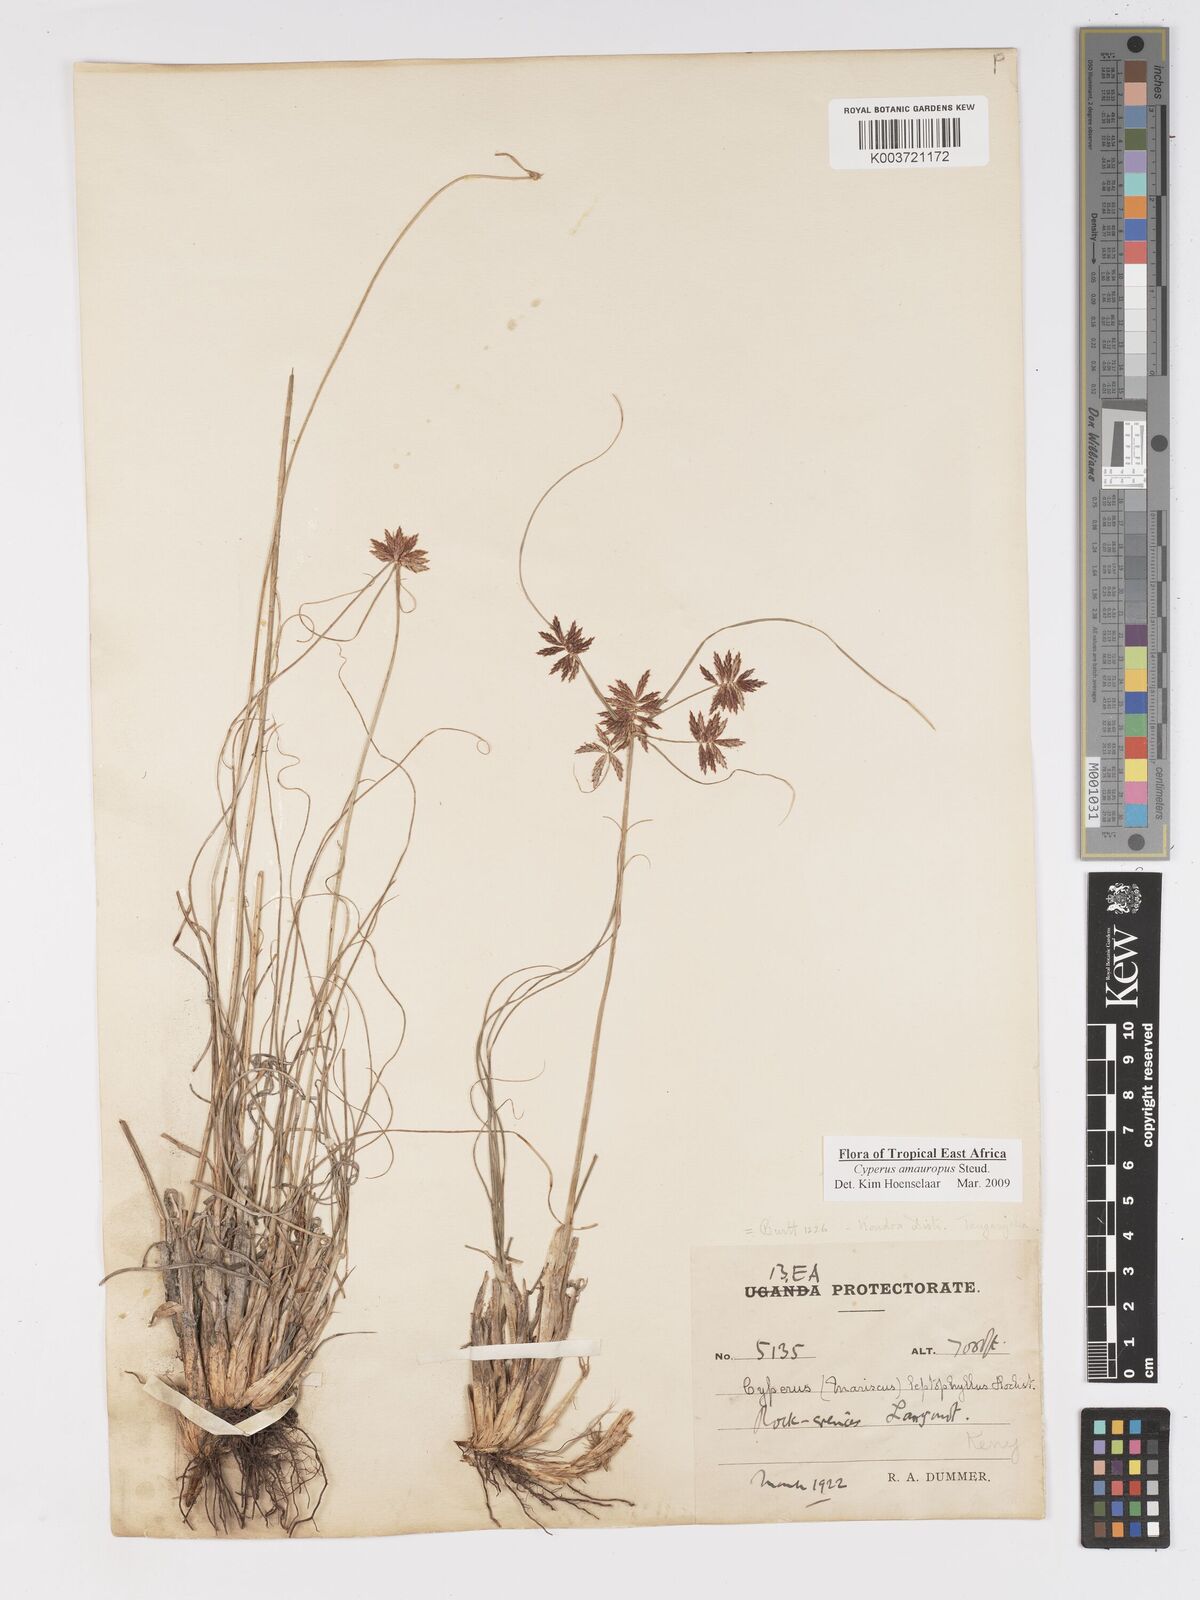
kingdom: Plantae
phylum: Tracheophyta
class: Liliopsida
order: Poales
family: Cyperaceae
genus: Cyperus
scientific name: Cyperus amauropus
